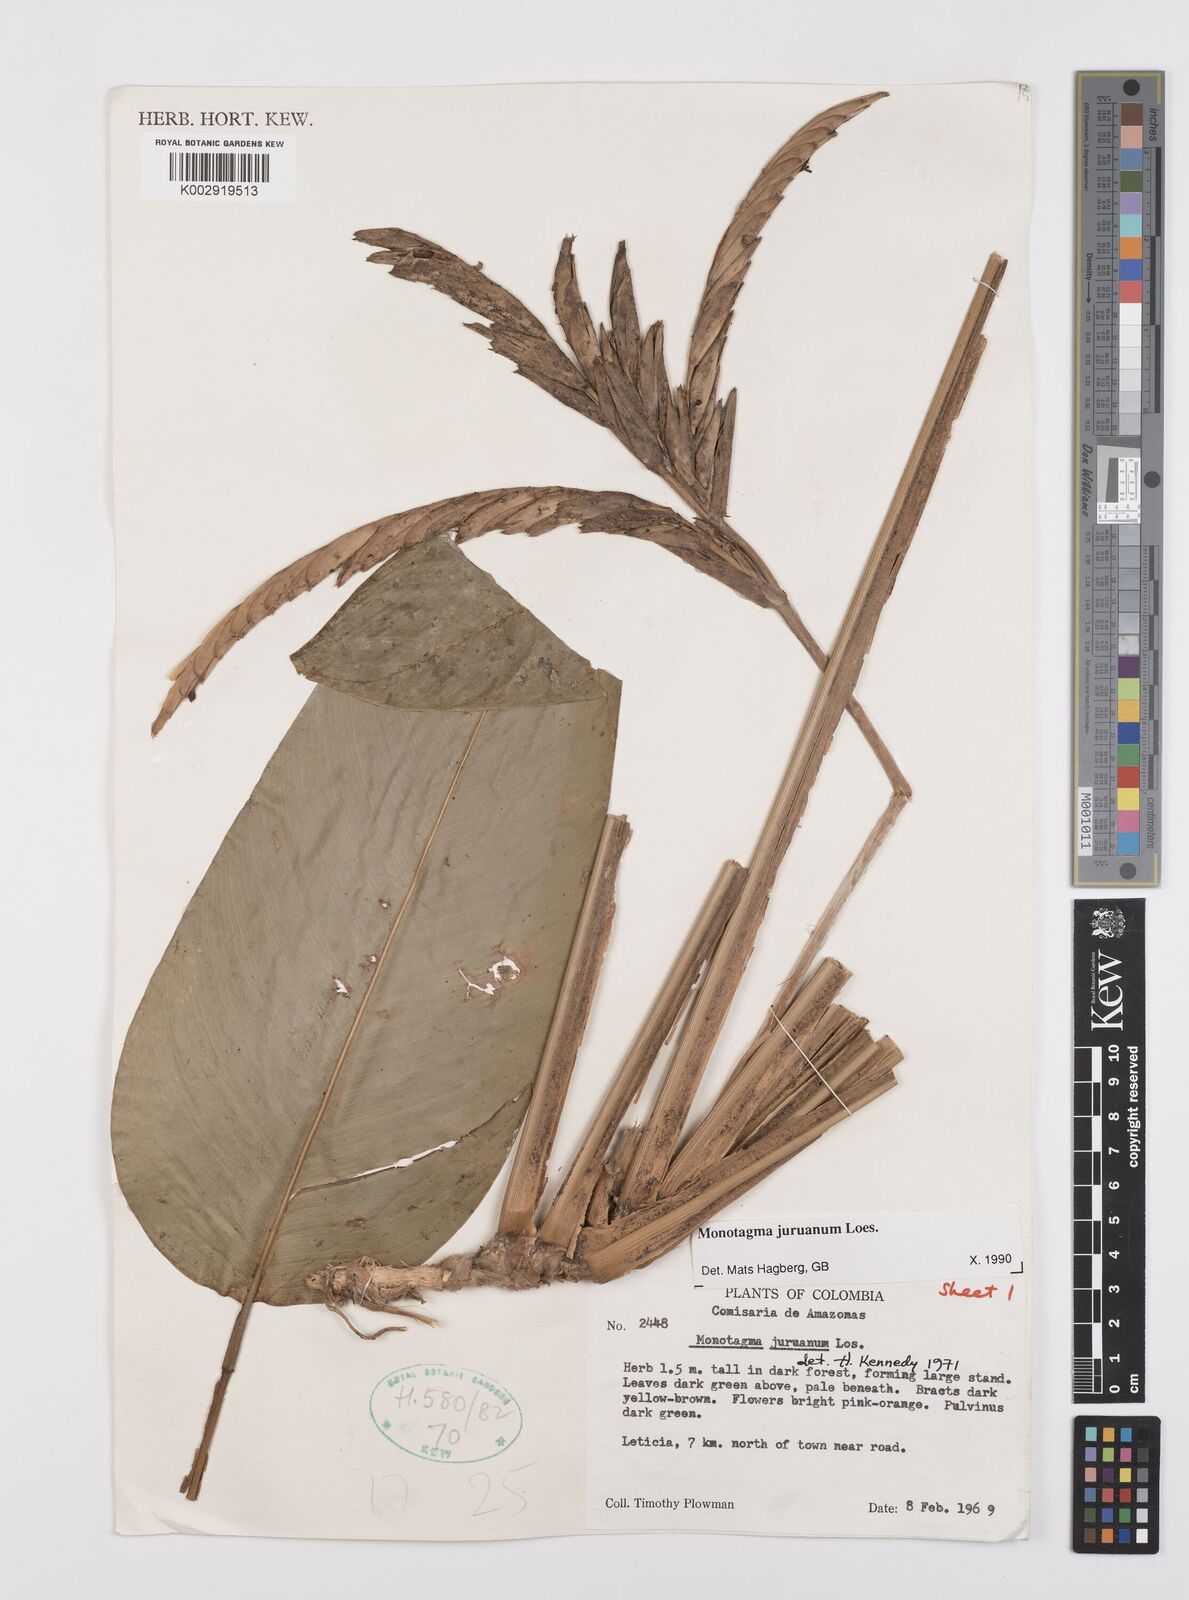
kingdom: Plantae
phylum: Tracheophyta
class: Liliopsida
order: Zingiberales
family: Marantaceae
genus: Monotagma
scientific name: Monotagma juruanum
